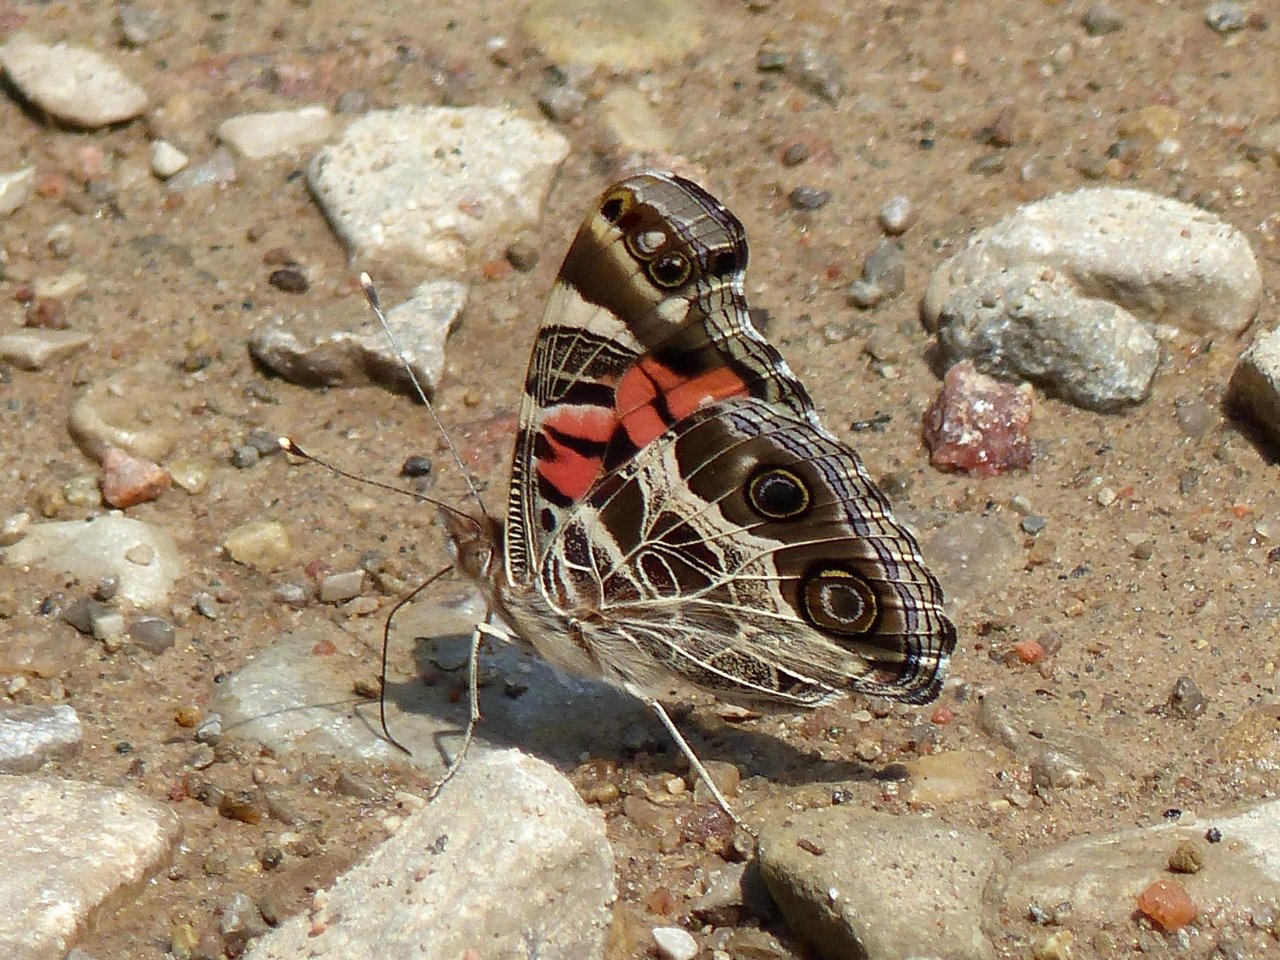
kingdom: Animalia
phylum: Arthropoda
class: Insecta
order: Lepidoptera
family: Nymphalidae
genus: Vanessa
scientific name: Vanessa virginiensis
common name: American Lady
